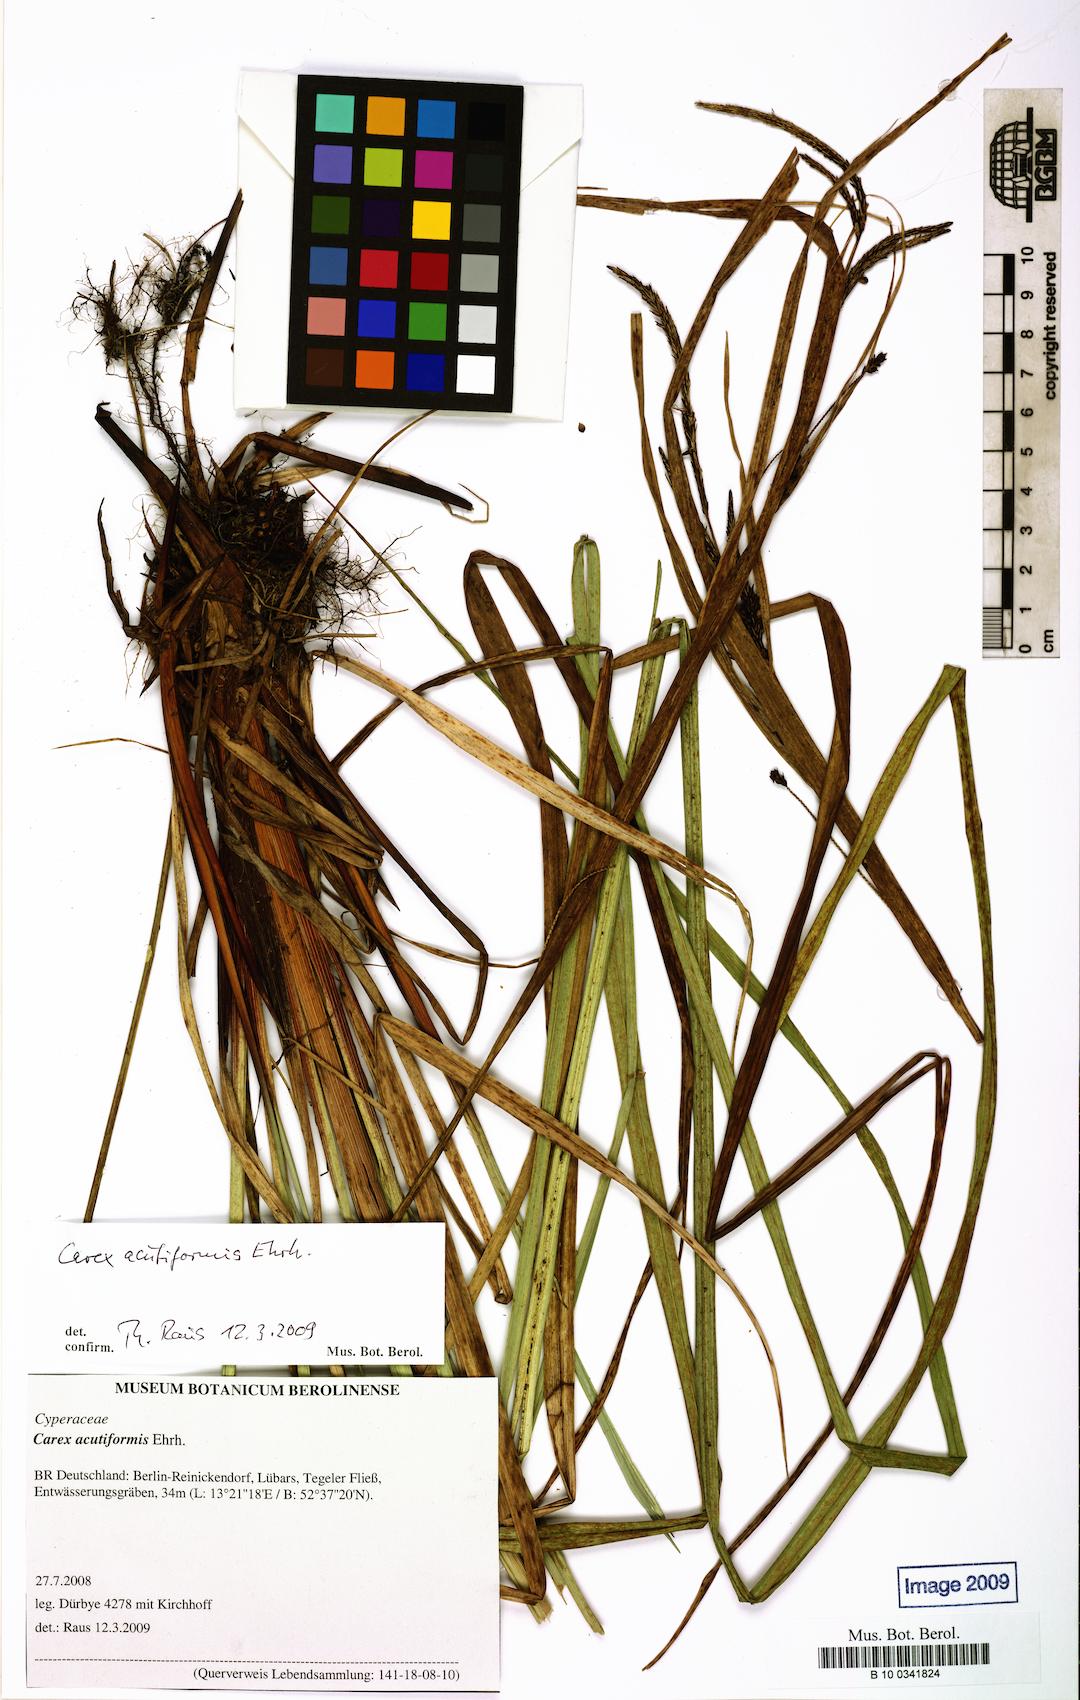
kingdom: Plantae
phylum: Tracheophyta
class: Liliopsida
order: Poales
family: Cyperaceae
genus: Carex
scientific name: Carex acutiformis
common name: Lesser pond-sedge
